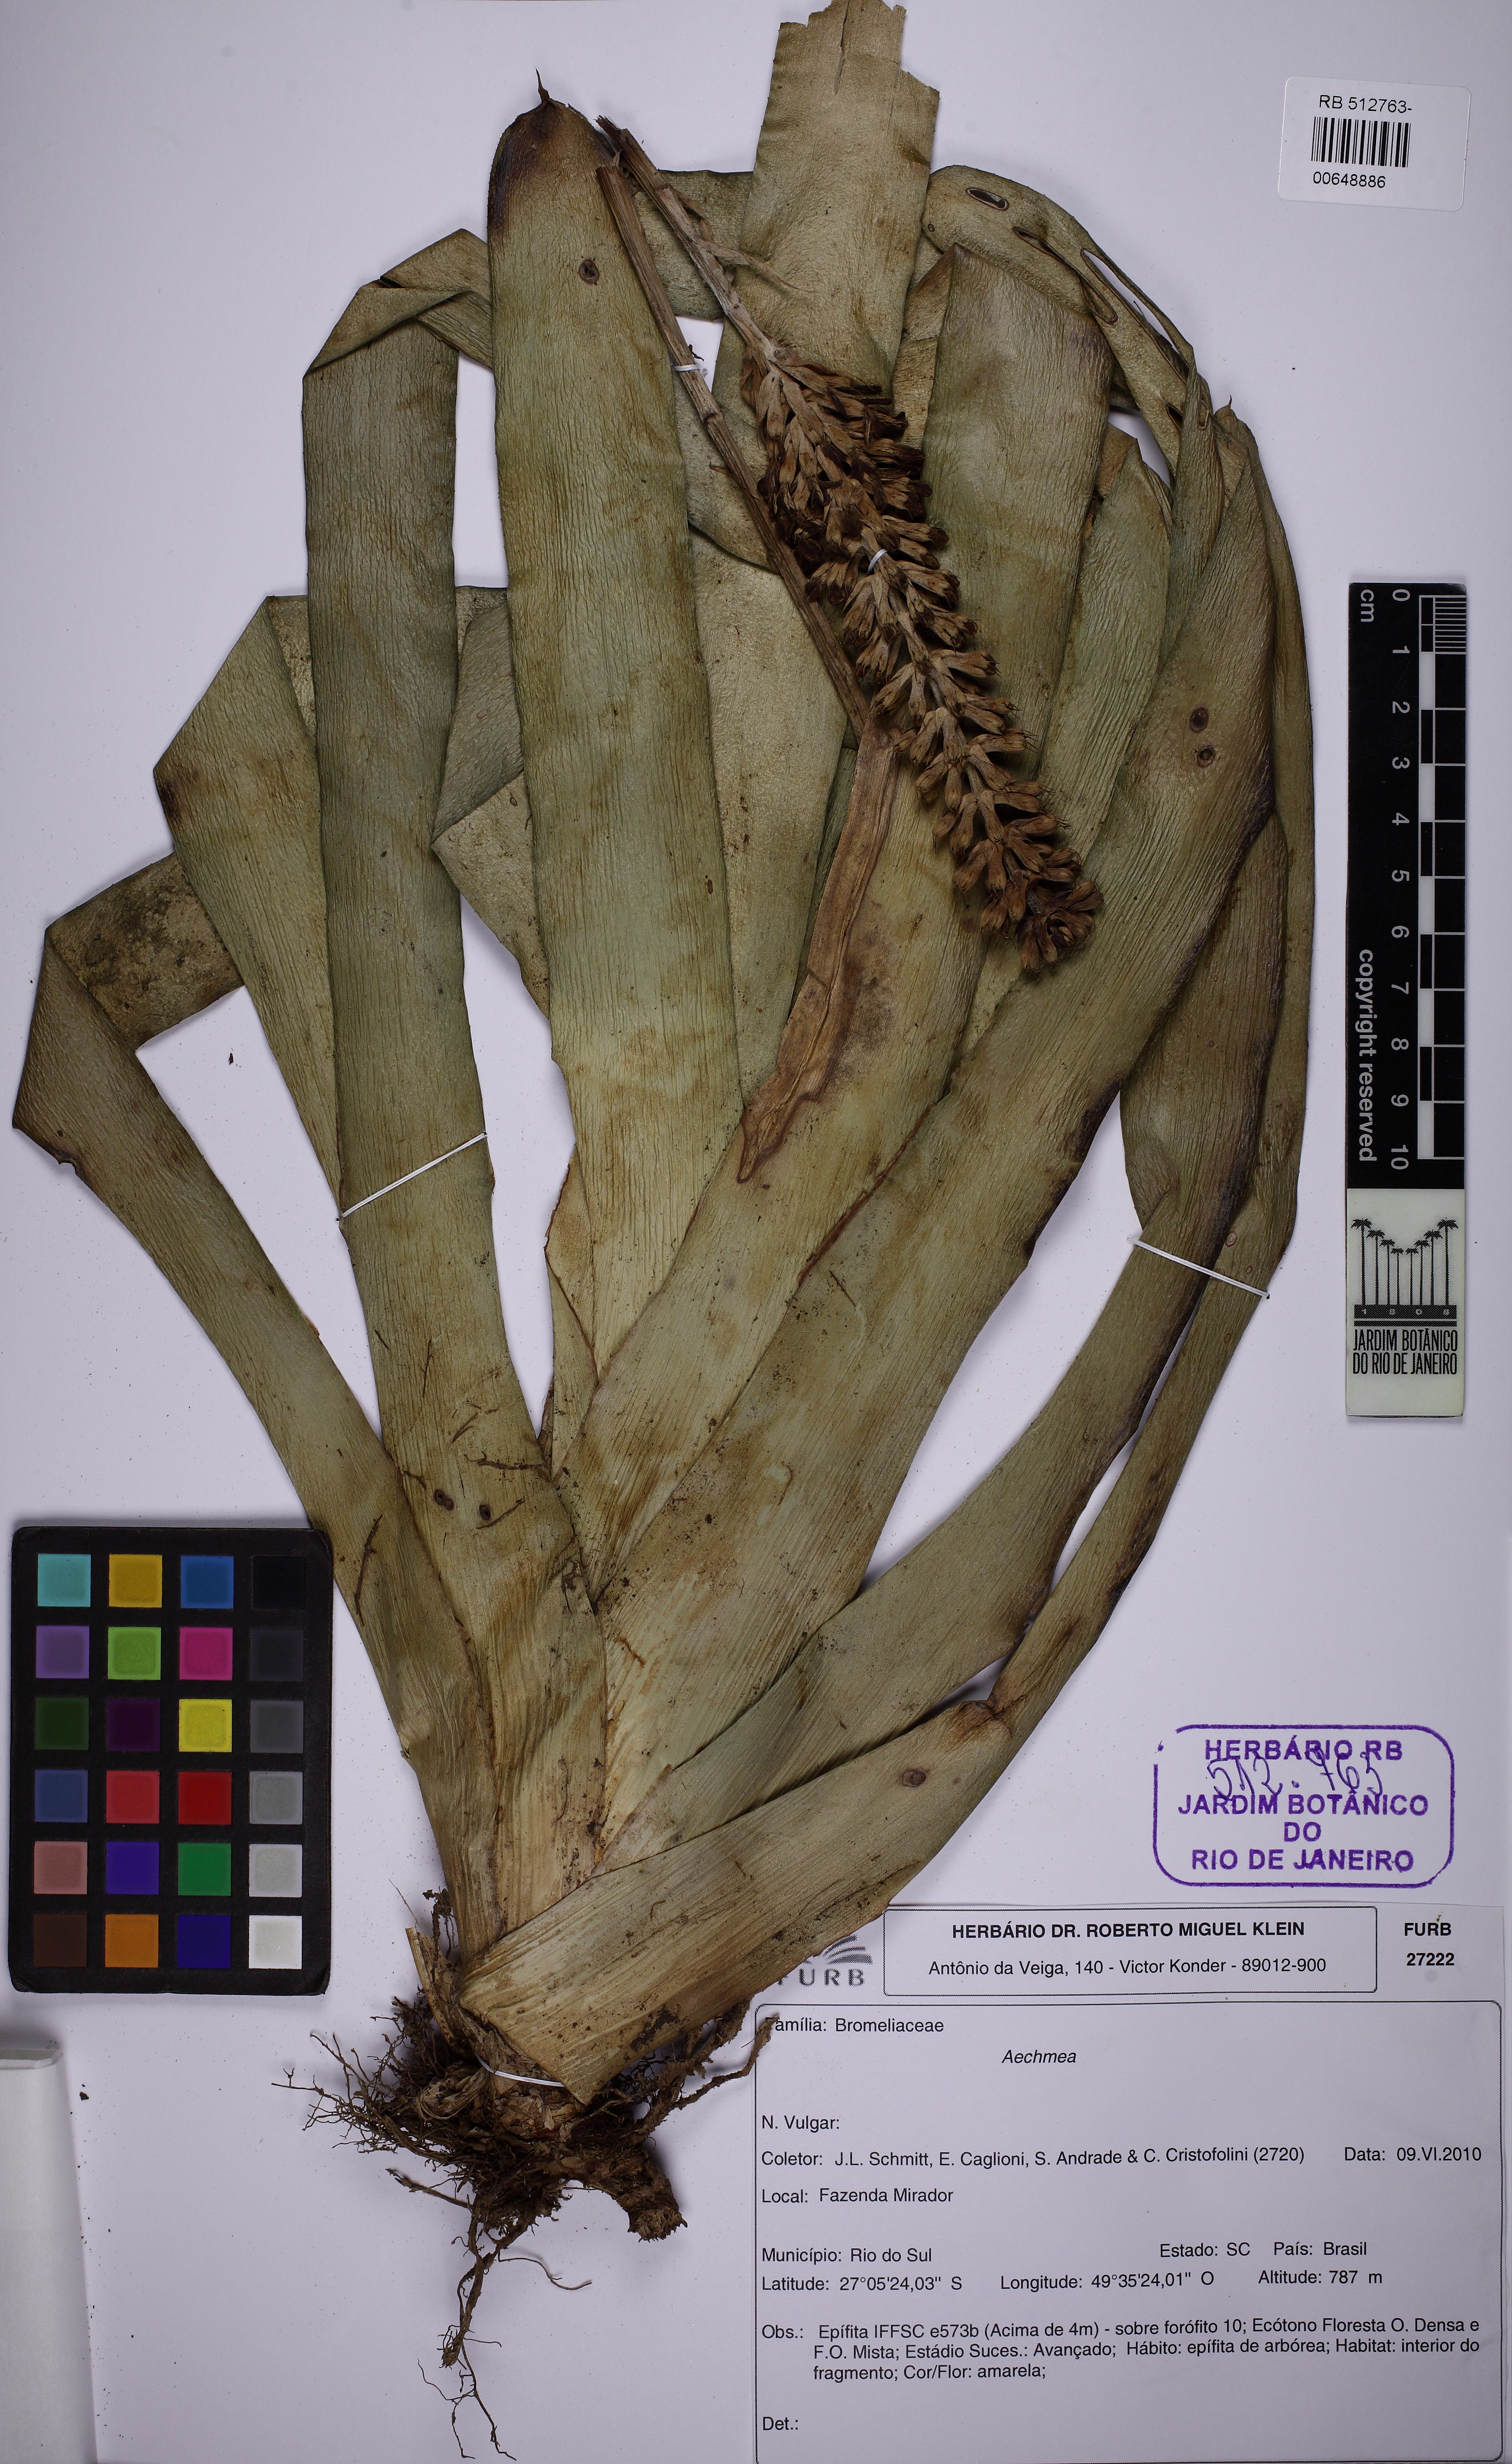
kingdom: Plantae
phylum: Tracheophyta
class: Liliopsida
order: Poales
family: Bromeliaceae
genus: Aechmea
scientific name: Aechmea blumenavii
